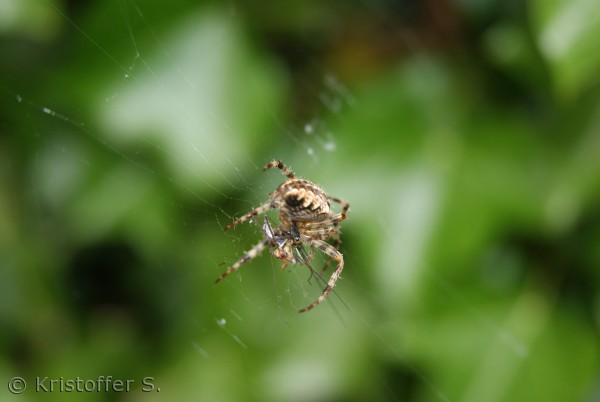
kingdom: Animalia
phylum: Arthropoda
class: Arachnida
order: Araneae
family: Araneidae
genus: Araneus
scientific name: Araneus diadematus
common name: Korsedderkop
